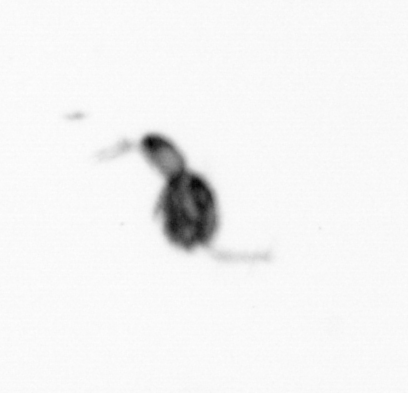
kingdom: Animalia
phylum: Arthropoda
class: Copepoda
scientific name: Copepoda
